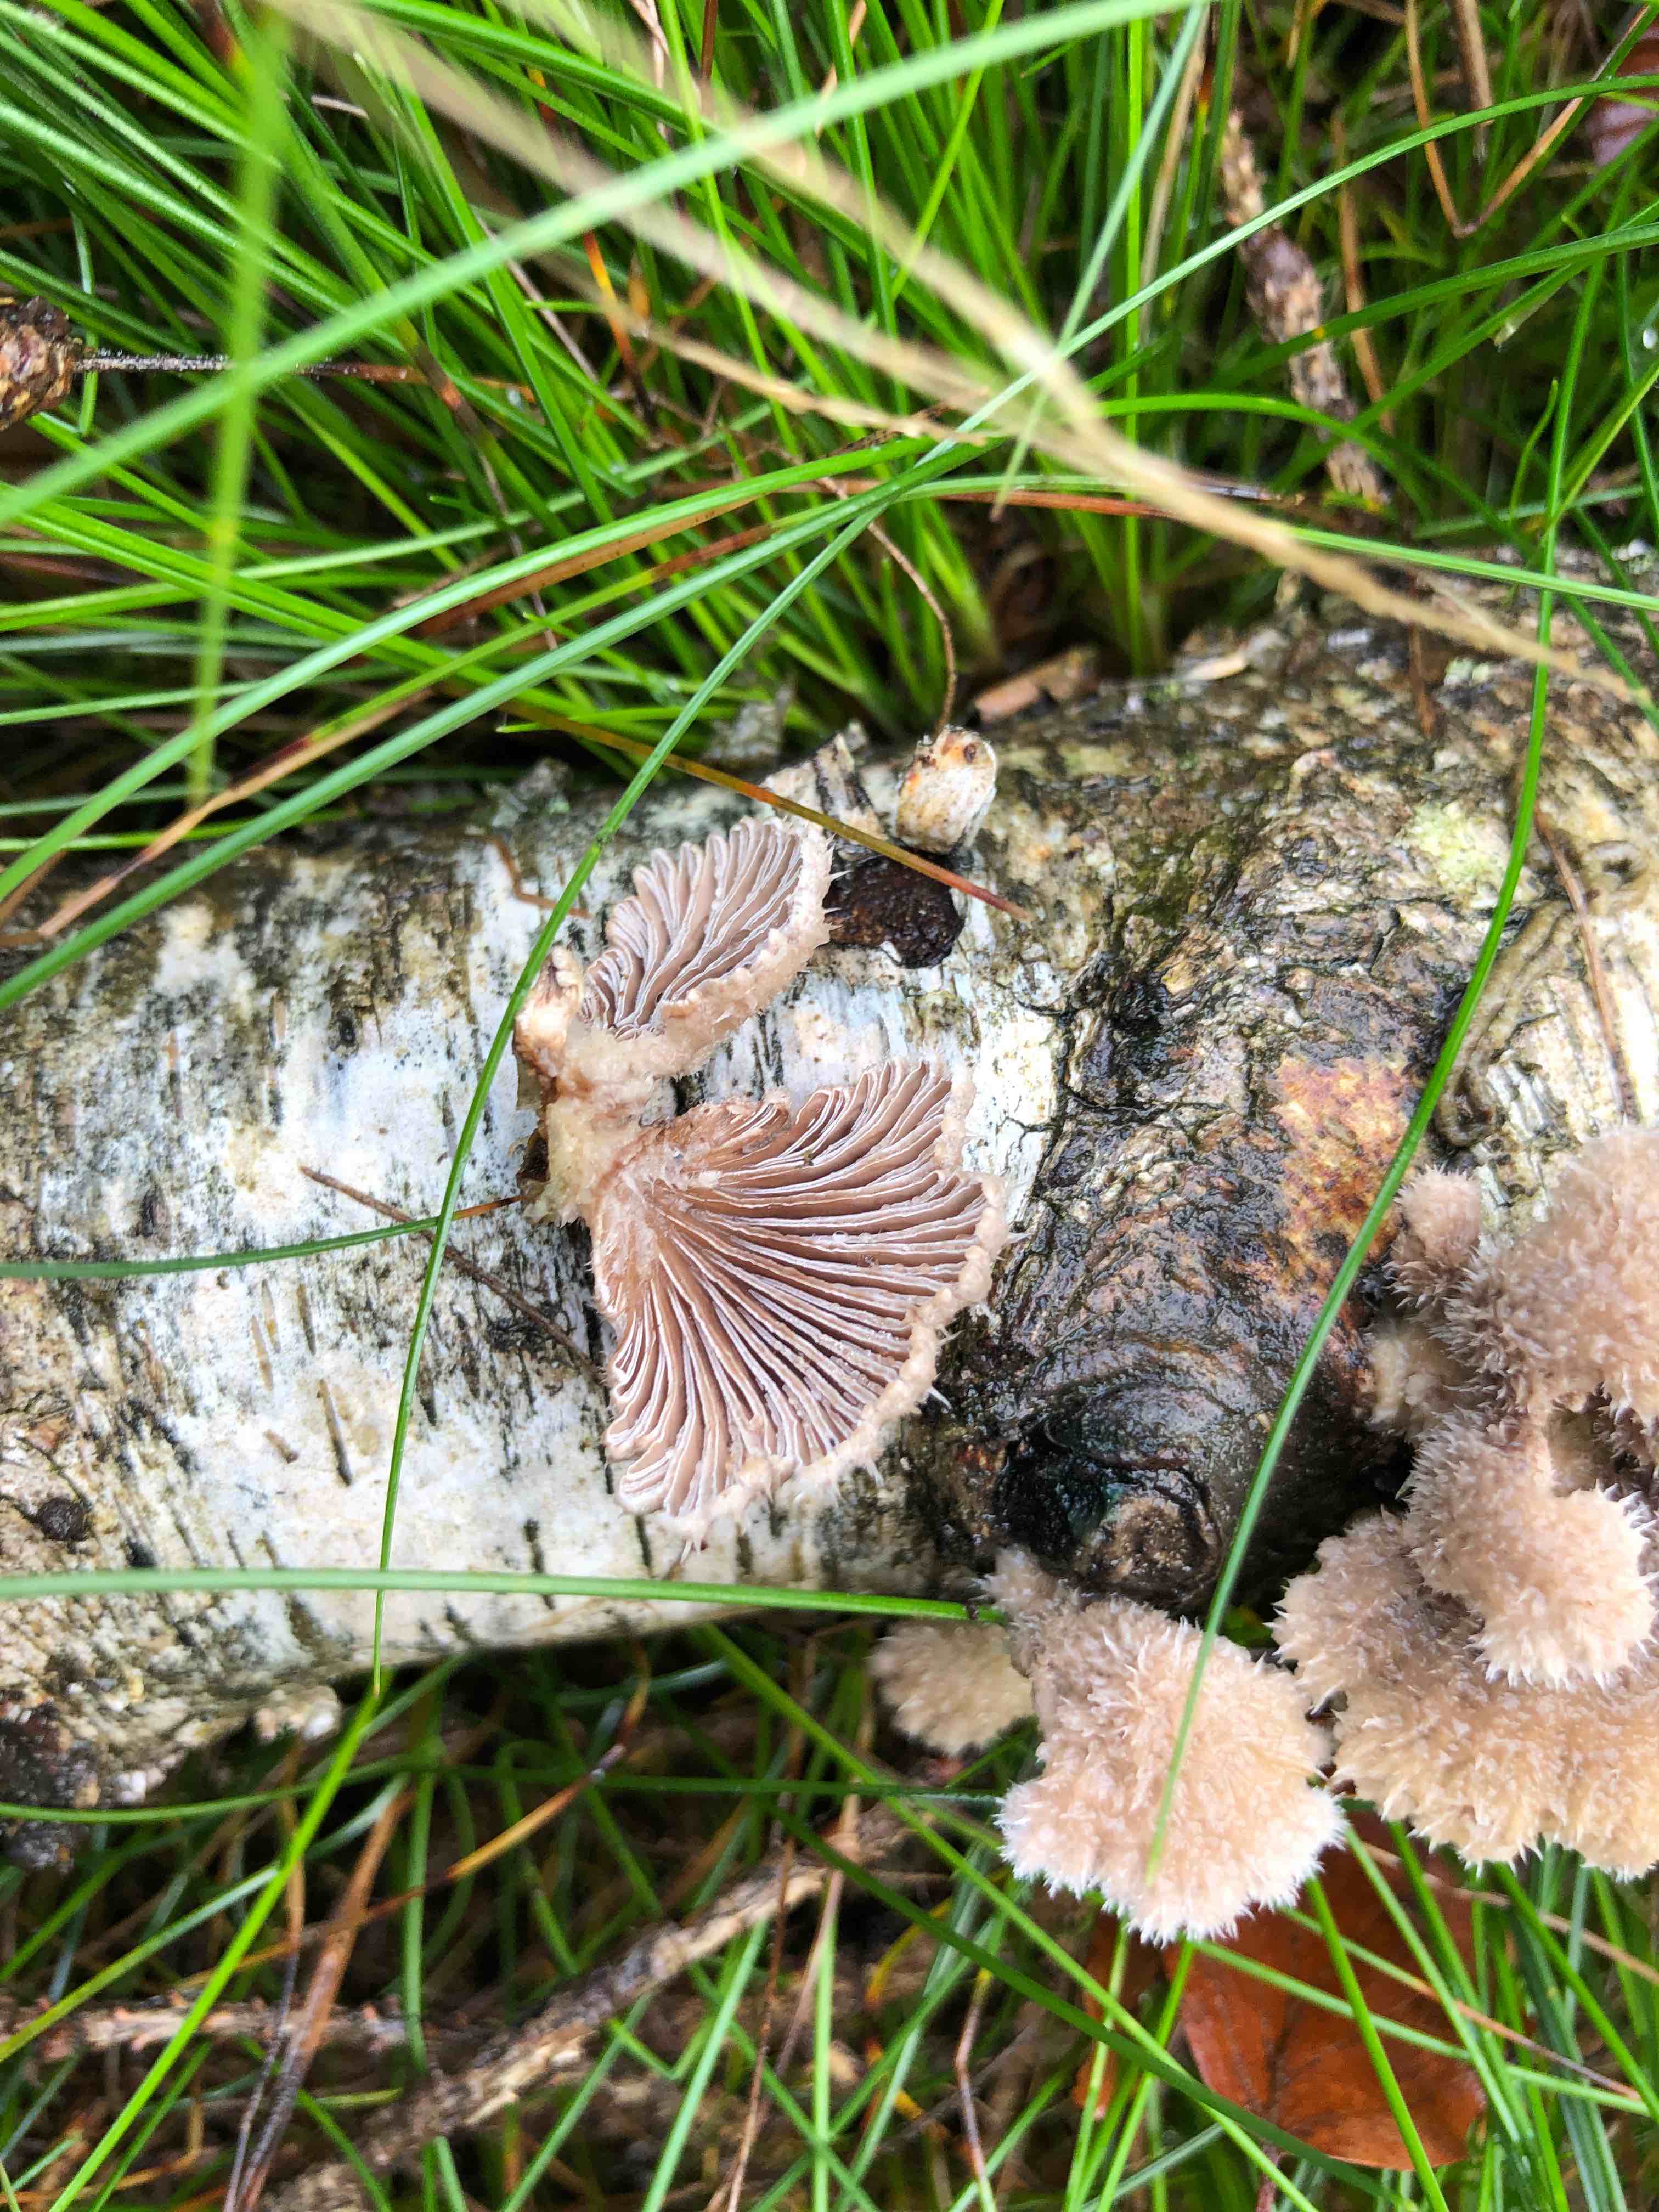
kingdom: Fungi
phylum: Basidiomycota
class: Agaricomycetes
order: Agaricales
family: Schizophyllaceae
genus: Schizophyllum
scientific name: Schizophyllum commune
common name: kløvblad
